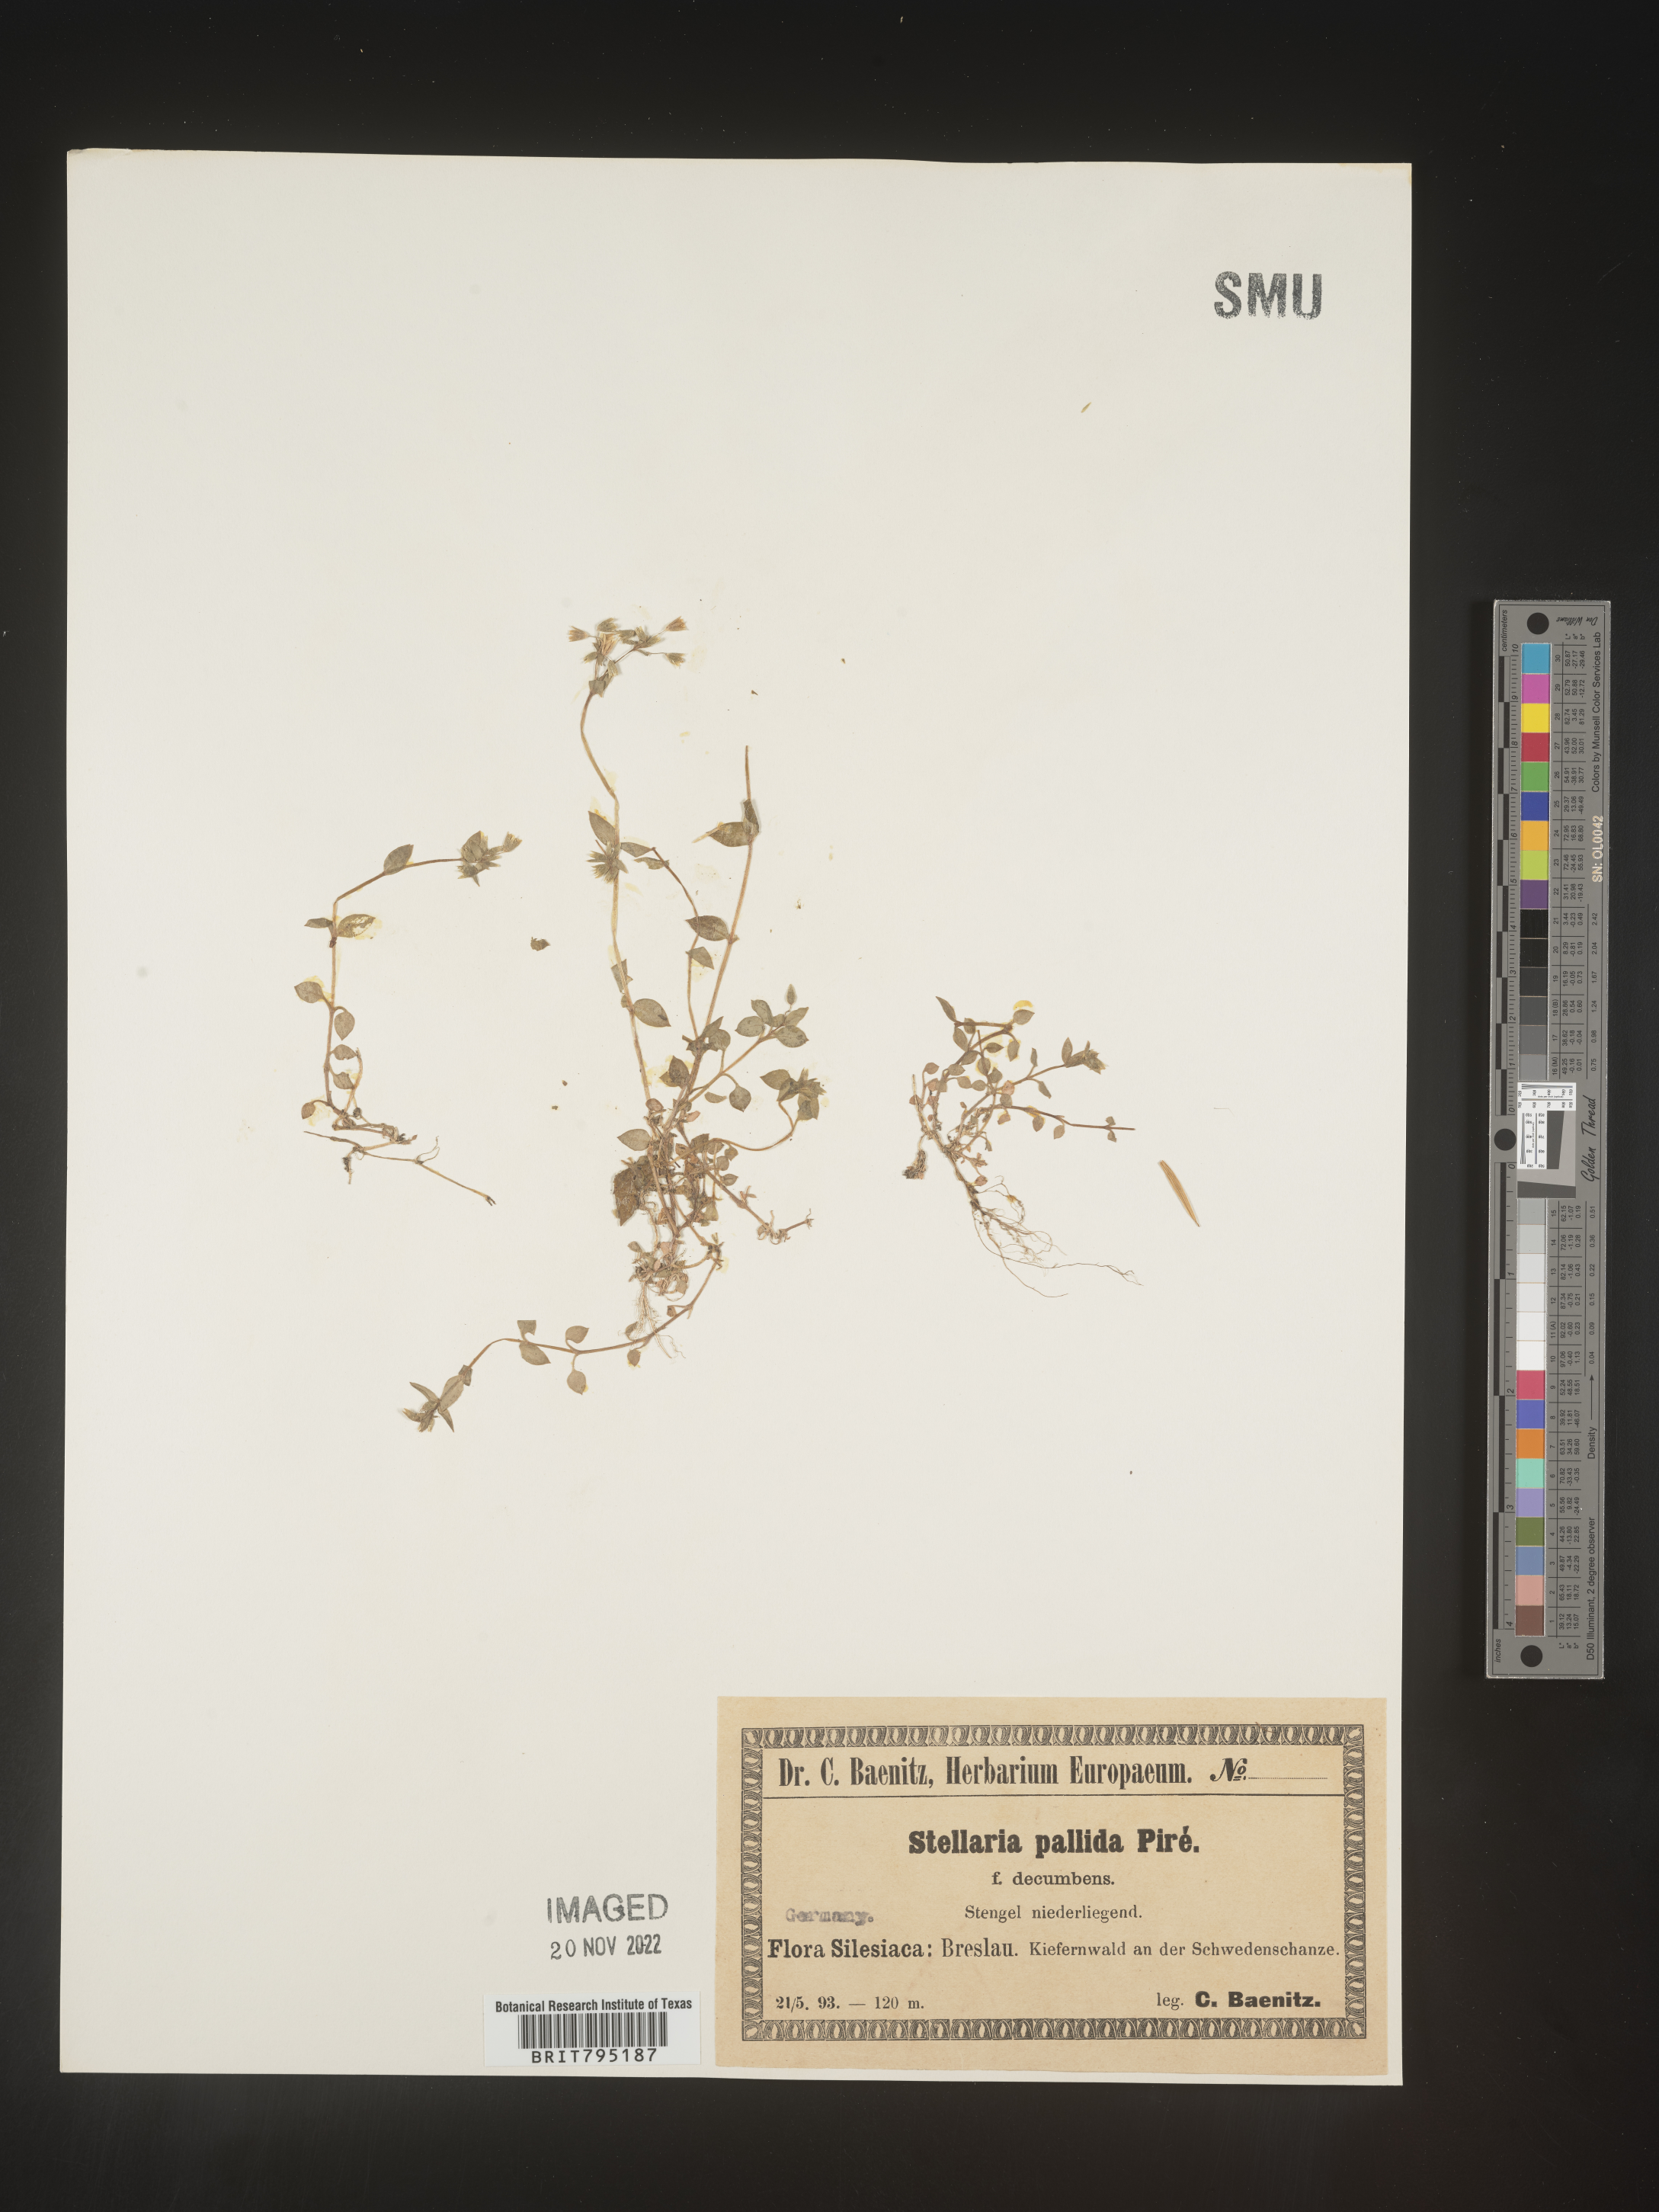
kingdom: Plantae
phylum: Tracheophyta
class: Magnoliopsida
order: Caryophyllales
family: Caryophyllaceae
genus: Stellaria
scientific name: Stellaria
